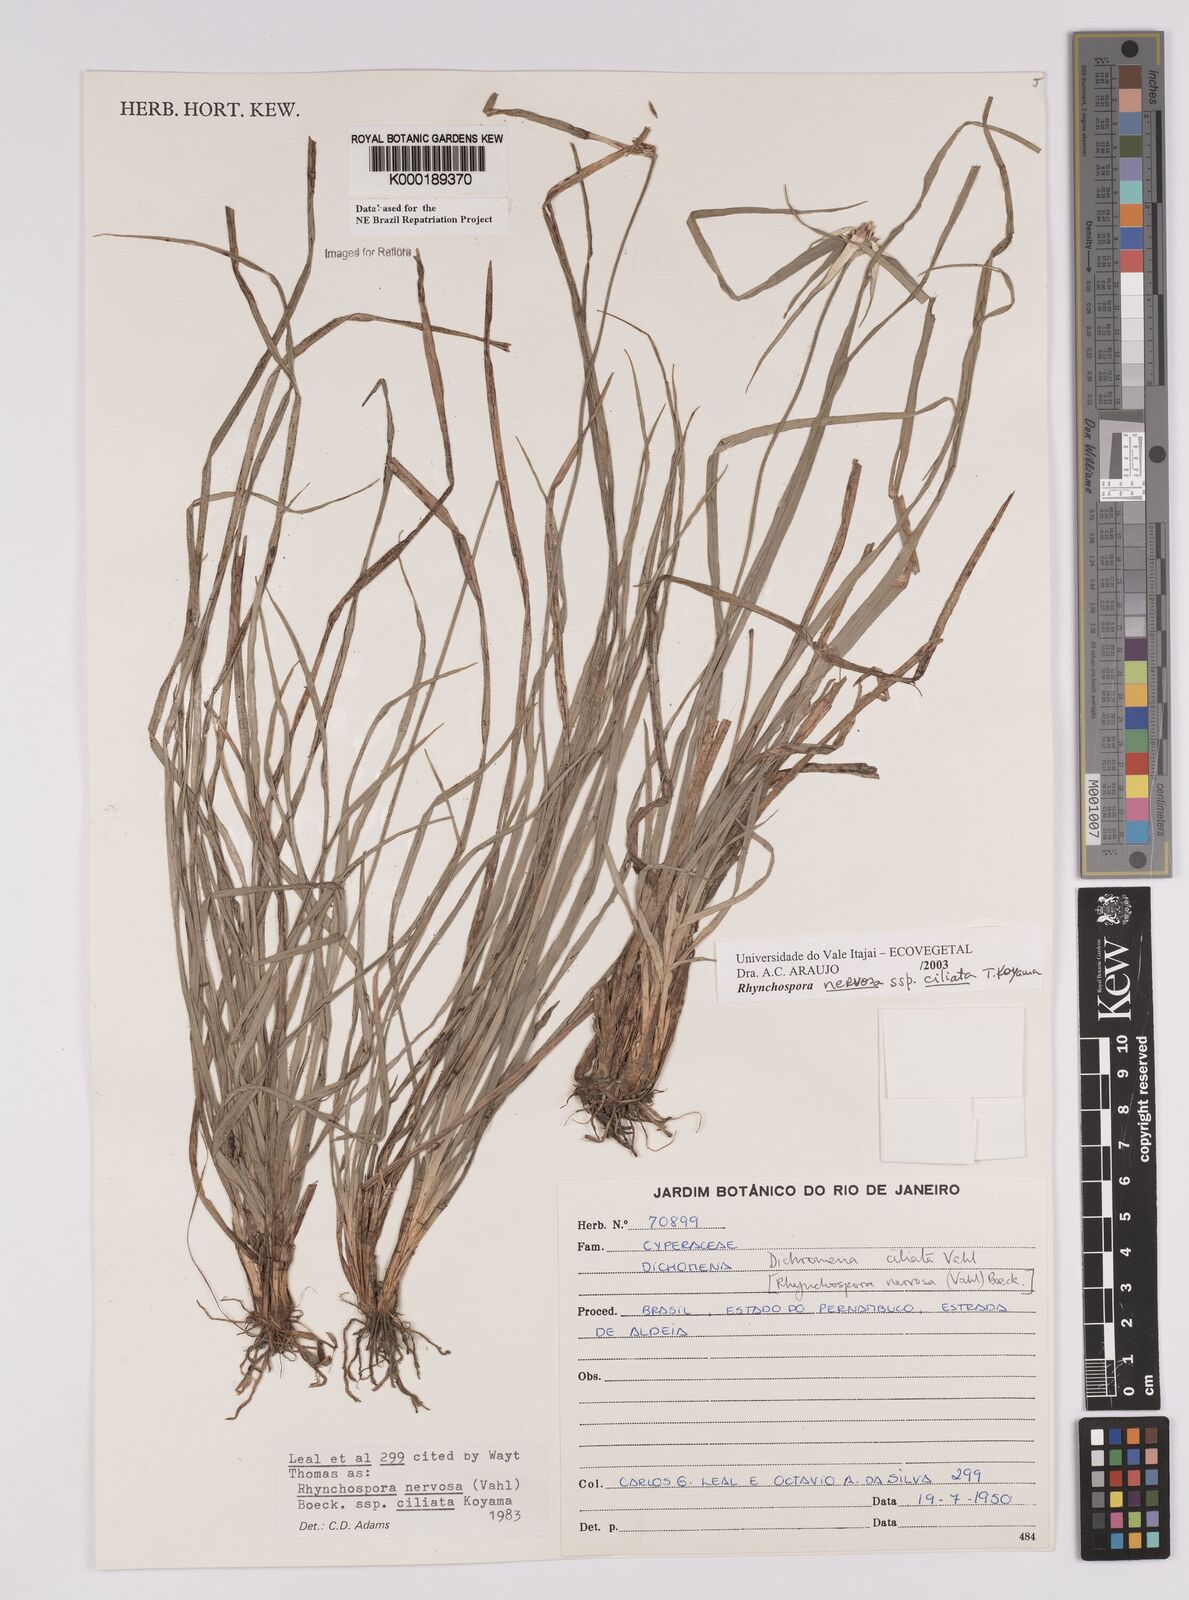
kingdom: Plantae
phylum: Tracheophyta
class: Liliopsida
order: Poales
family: Cyperaceae
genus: Rhynchospora
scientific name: Rhynchospora pura
